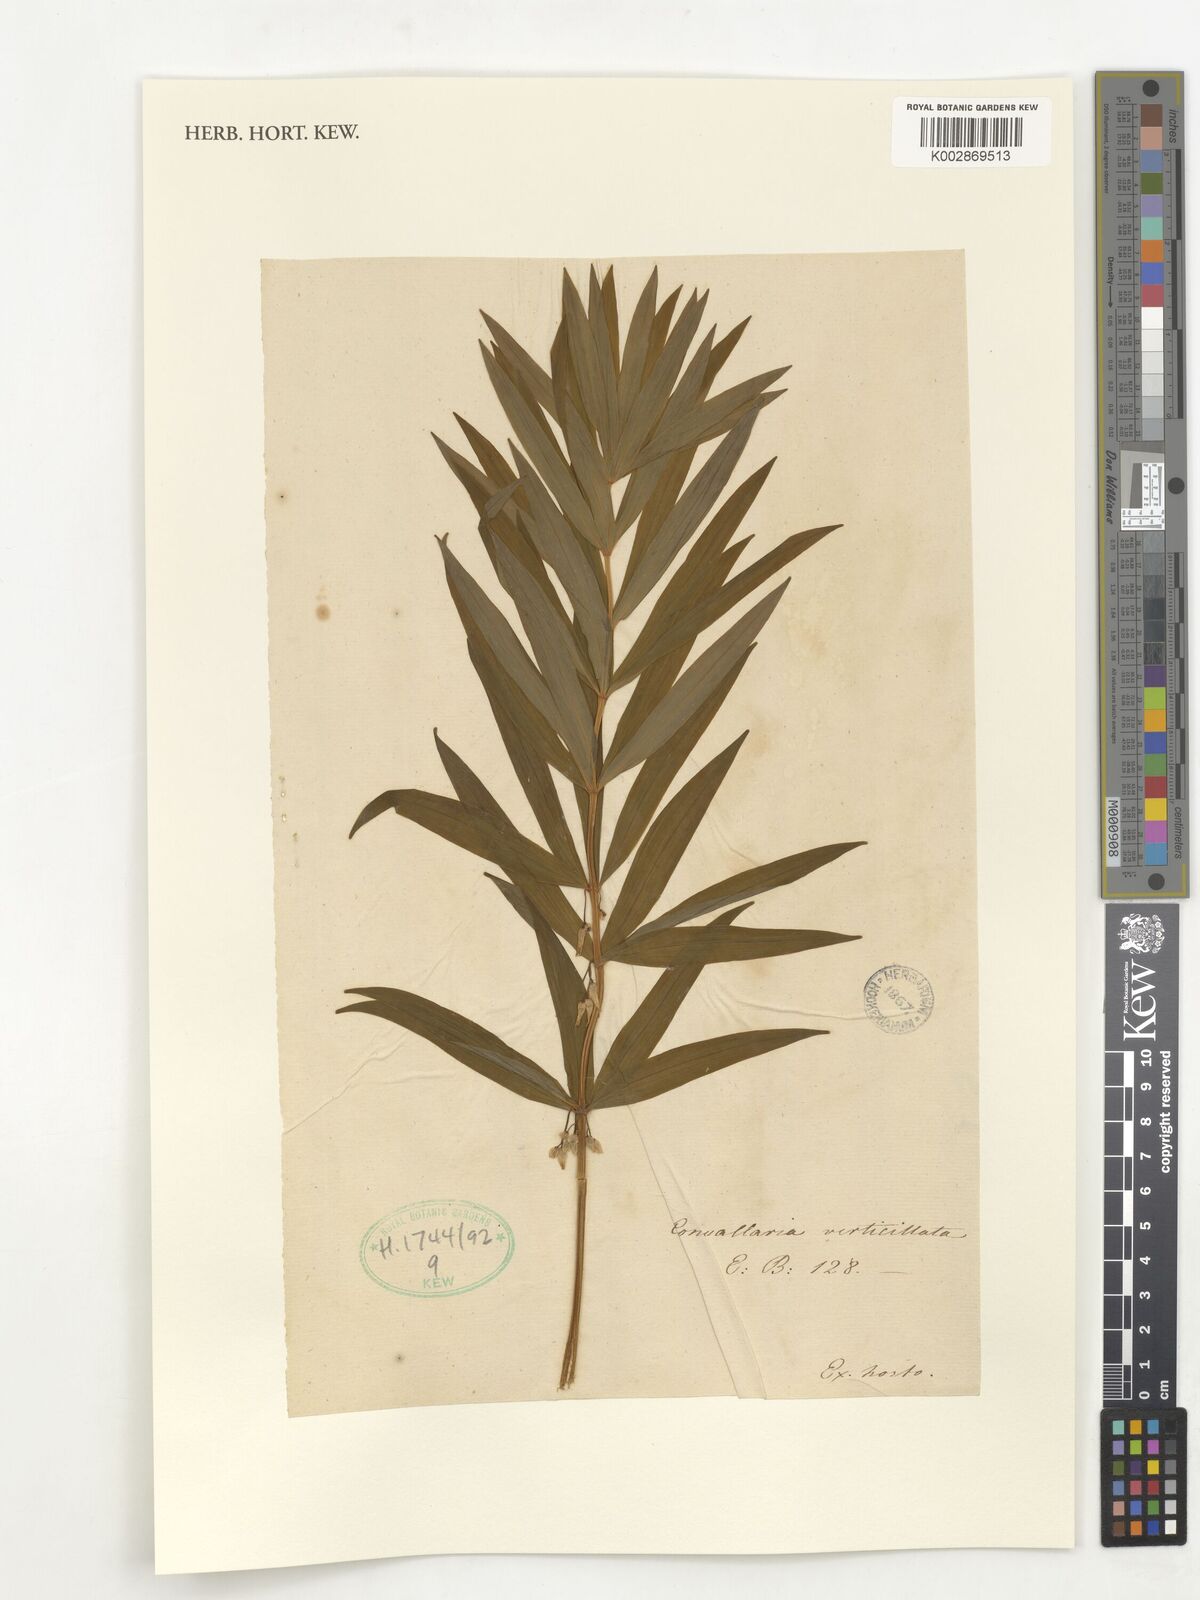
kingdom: Plantae
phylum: Tracheophyta
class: Liliopsida
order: Asparagales
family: Asparagaceae
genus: Polygonatum
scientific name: Polygonatum verticillatum
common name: Whorled solomon's-seal
